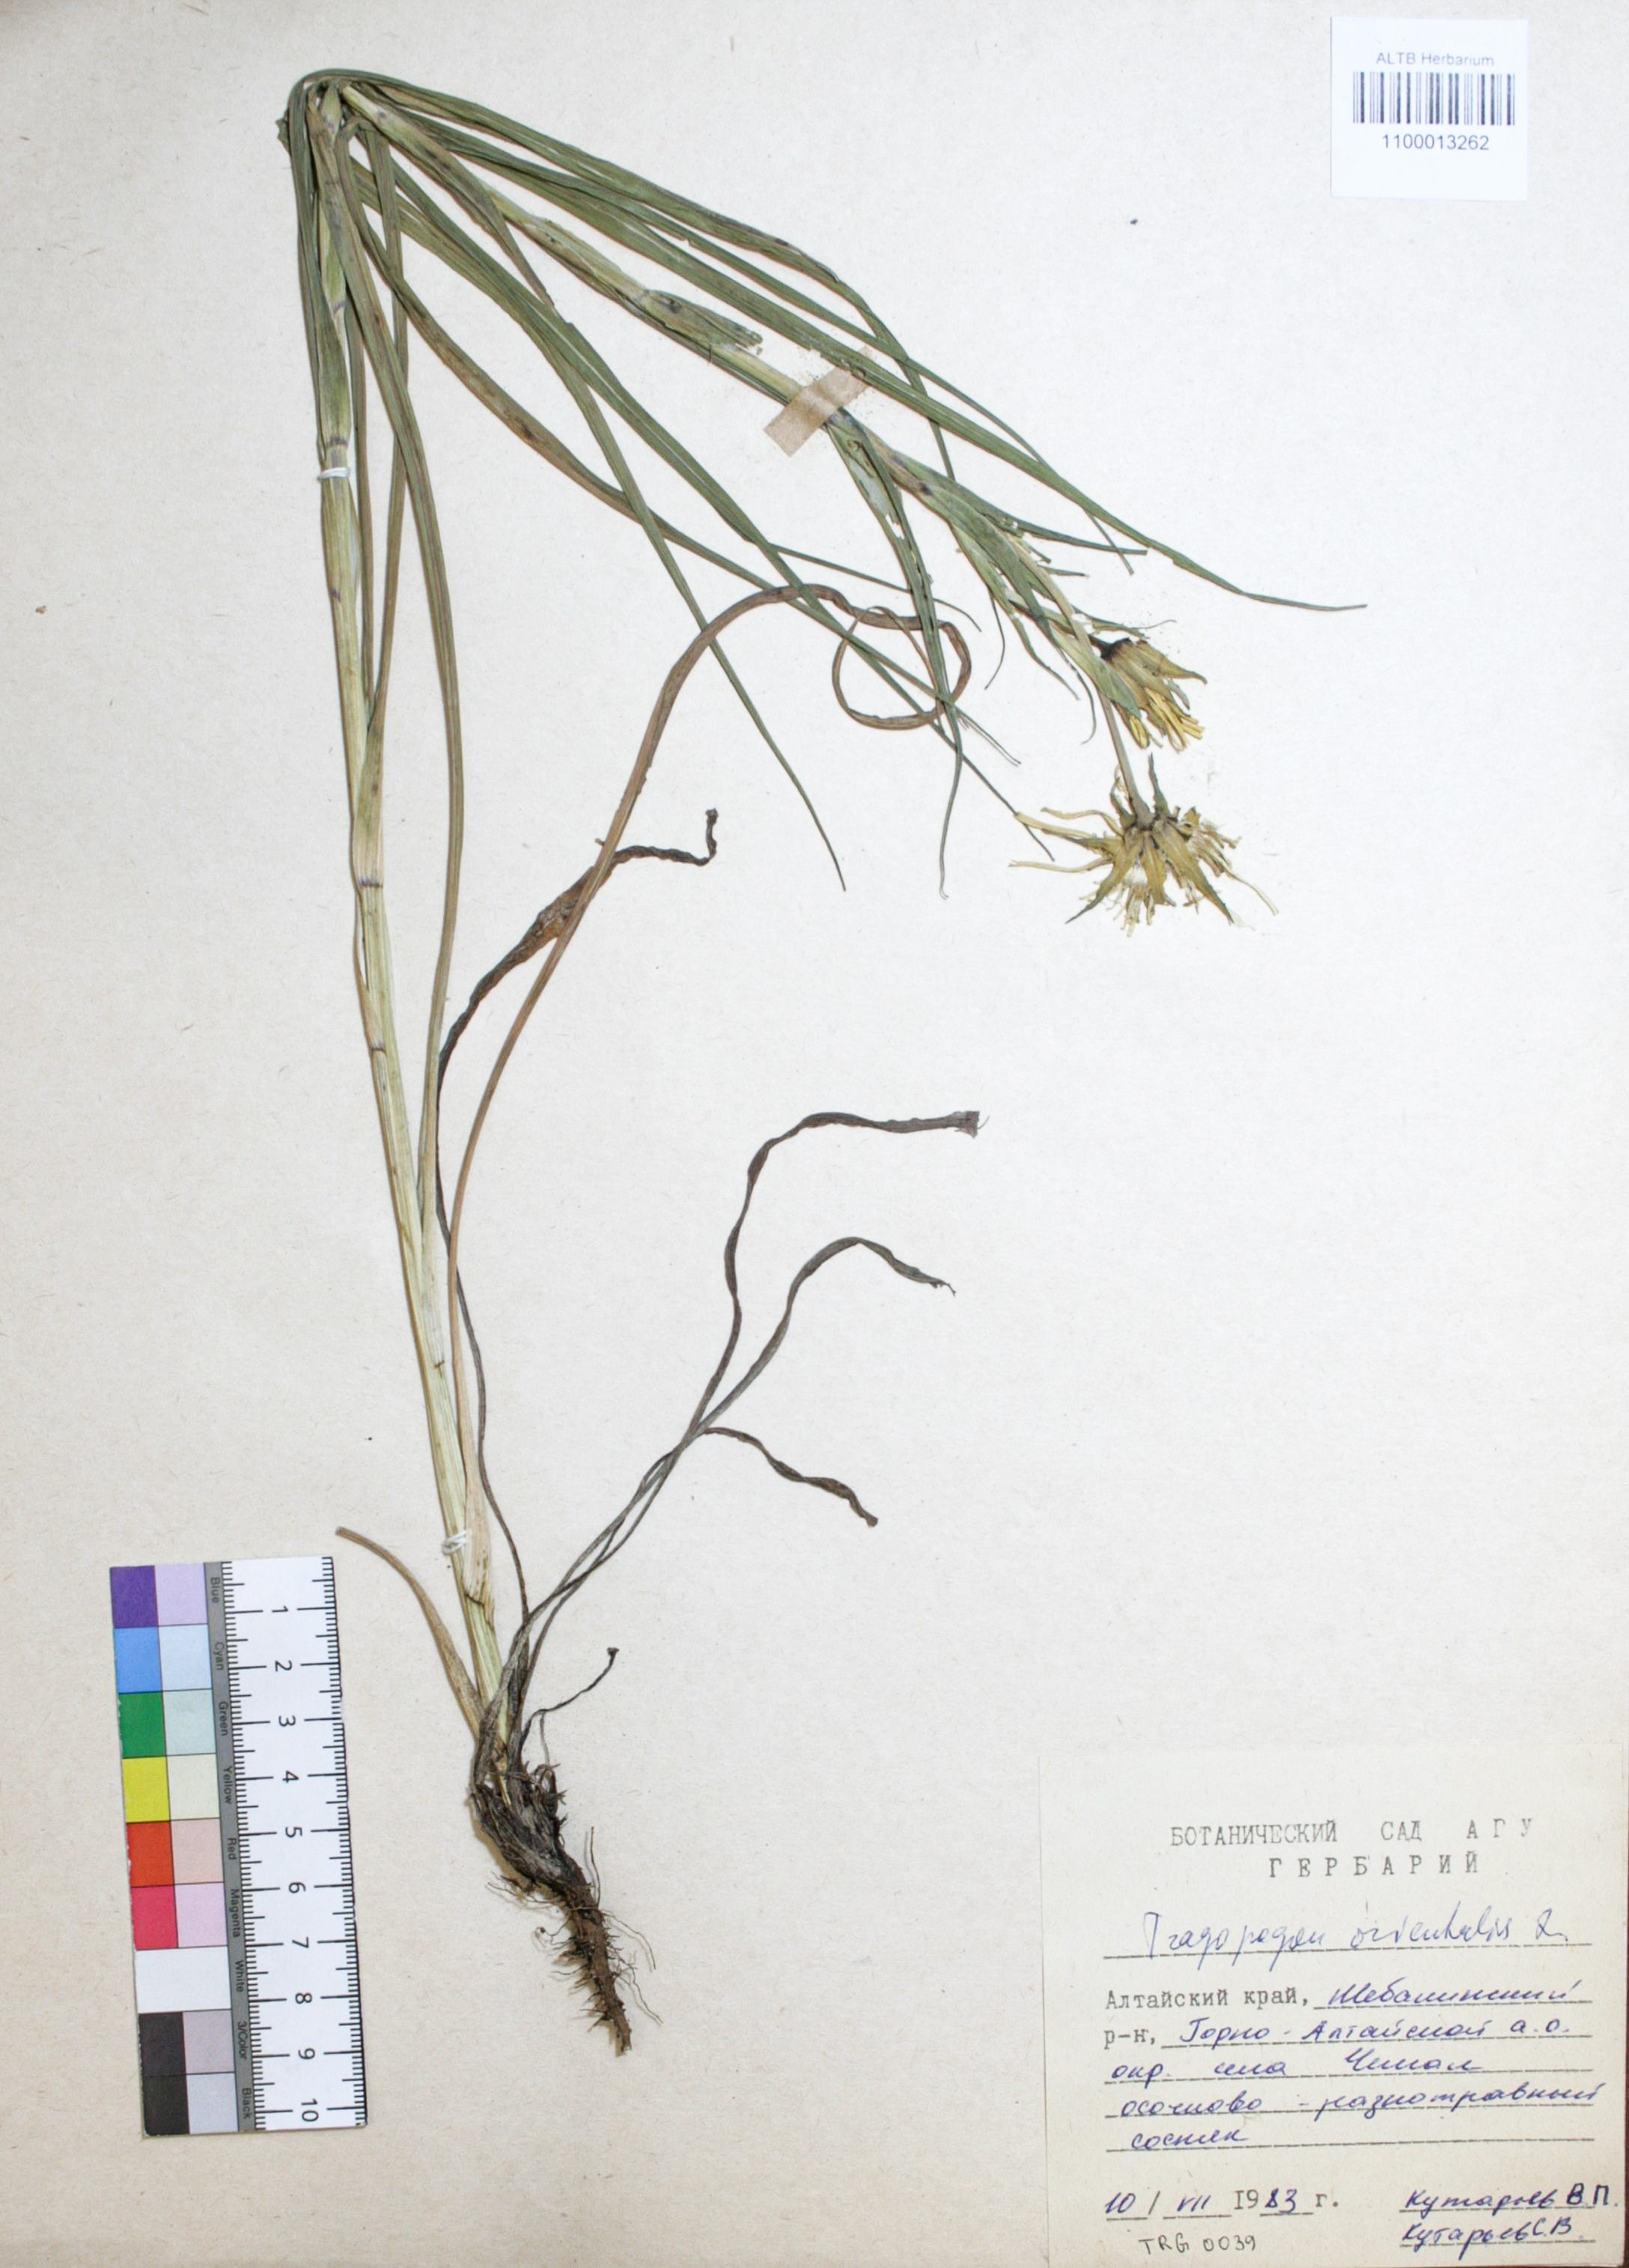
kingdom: Plantae
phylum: Tracheophyta
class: Magnoliopsida
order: Asterales
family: Asteraceae
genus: Tragopogon
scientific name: Tragopogon orientalis
